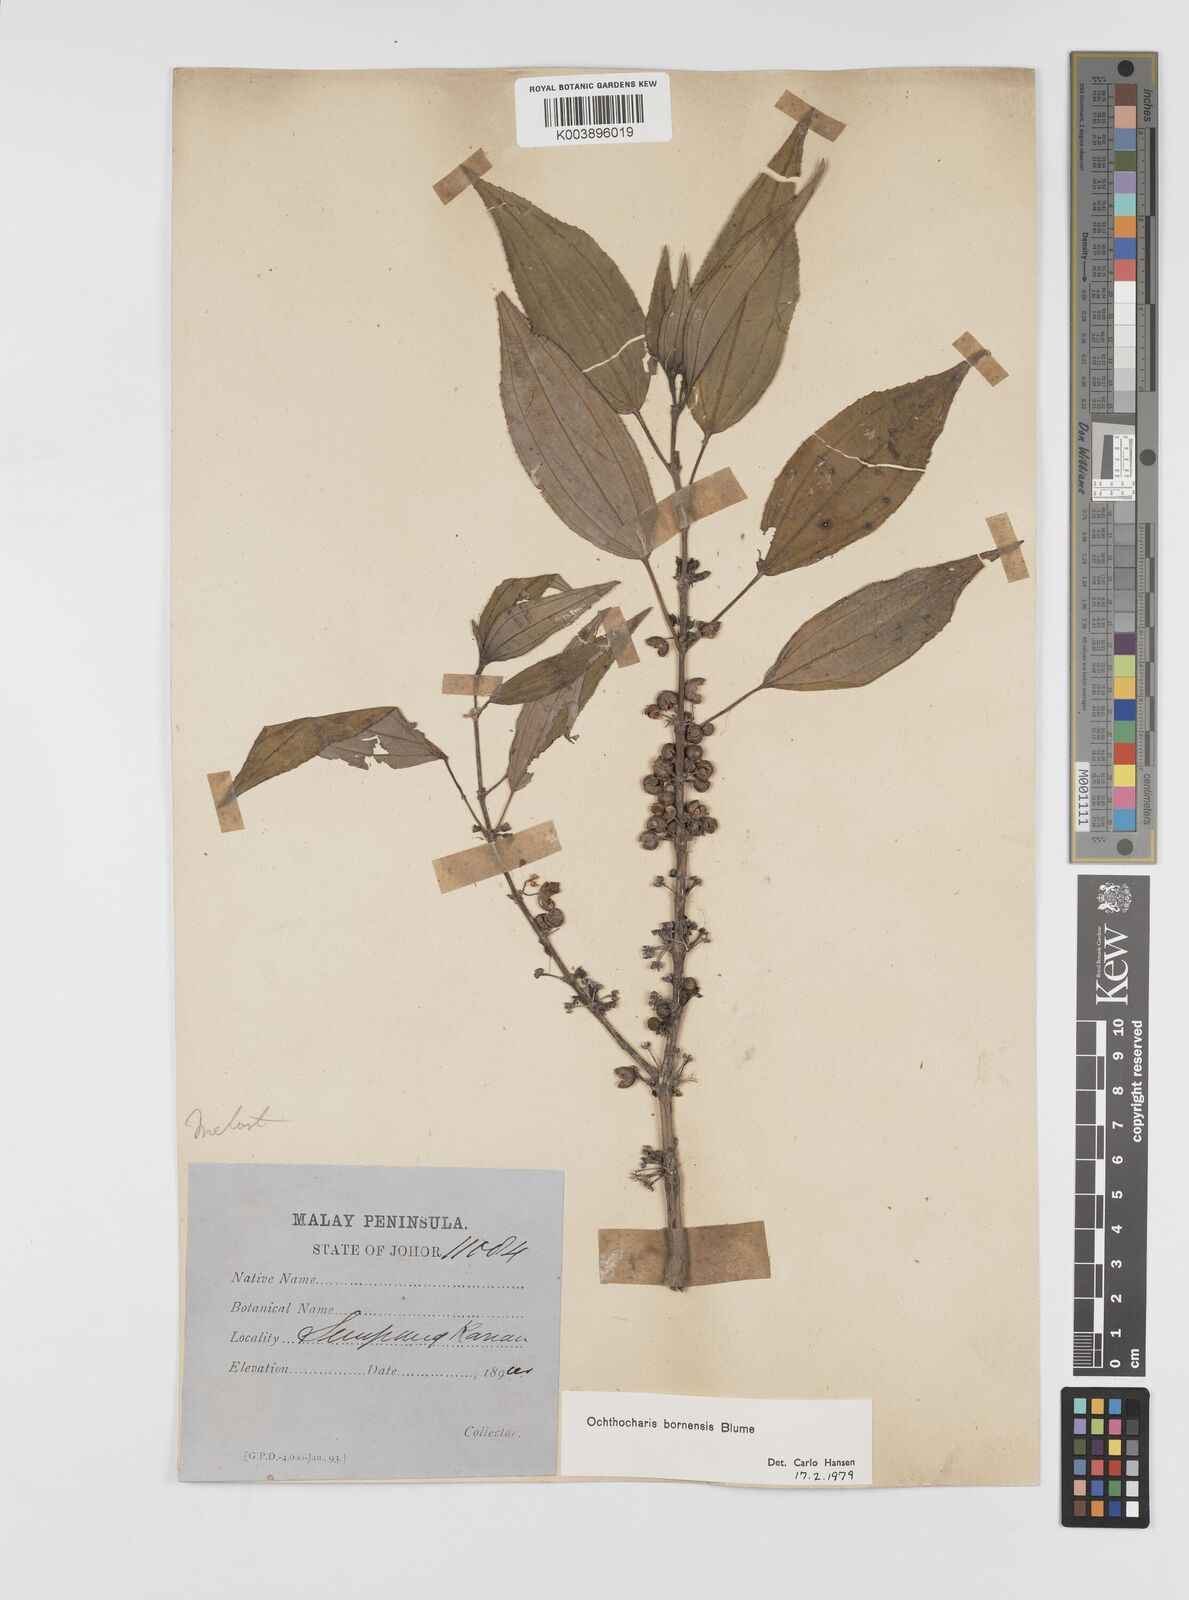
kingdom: Plantae
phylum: Tracheophyta
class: Magnoliopsida
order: Myrtales
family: Melastomataceae
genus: Ochthocharis
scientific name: Ochthocharis bornensis
